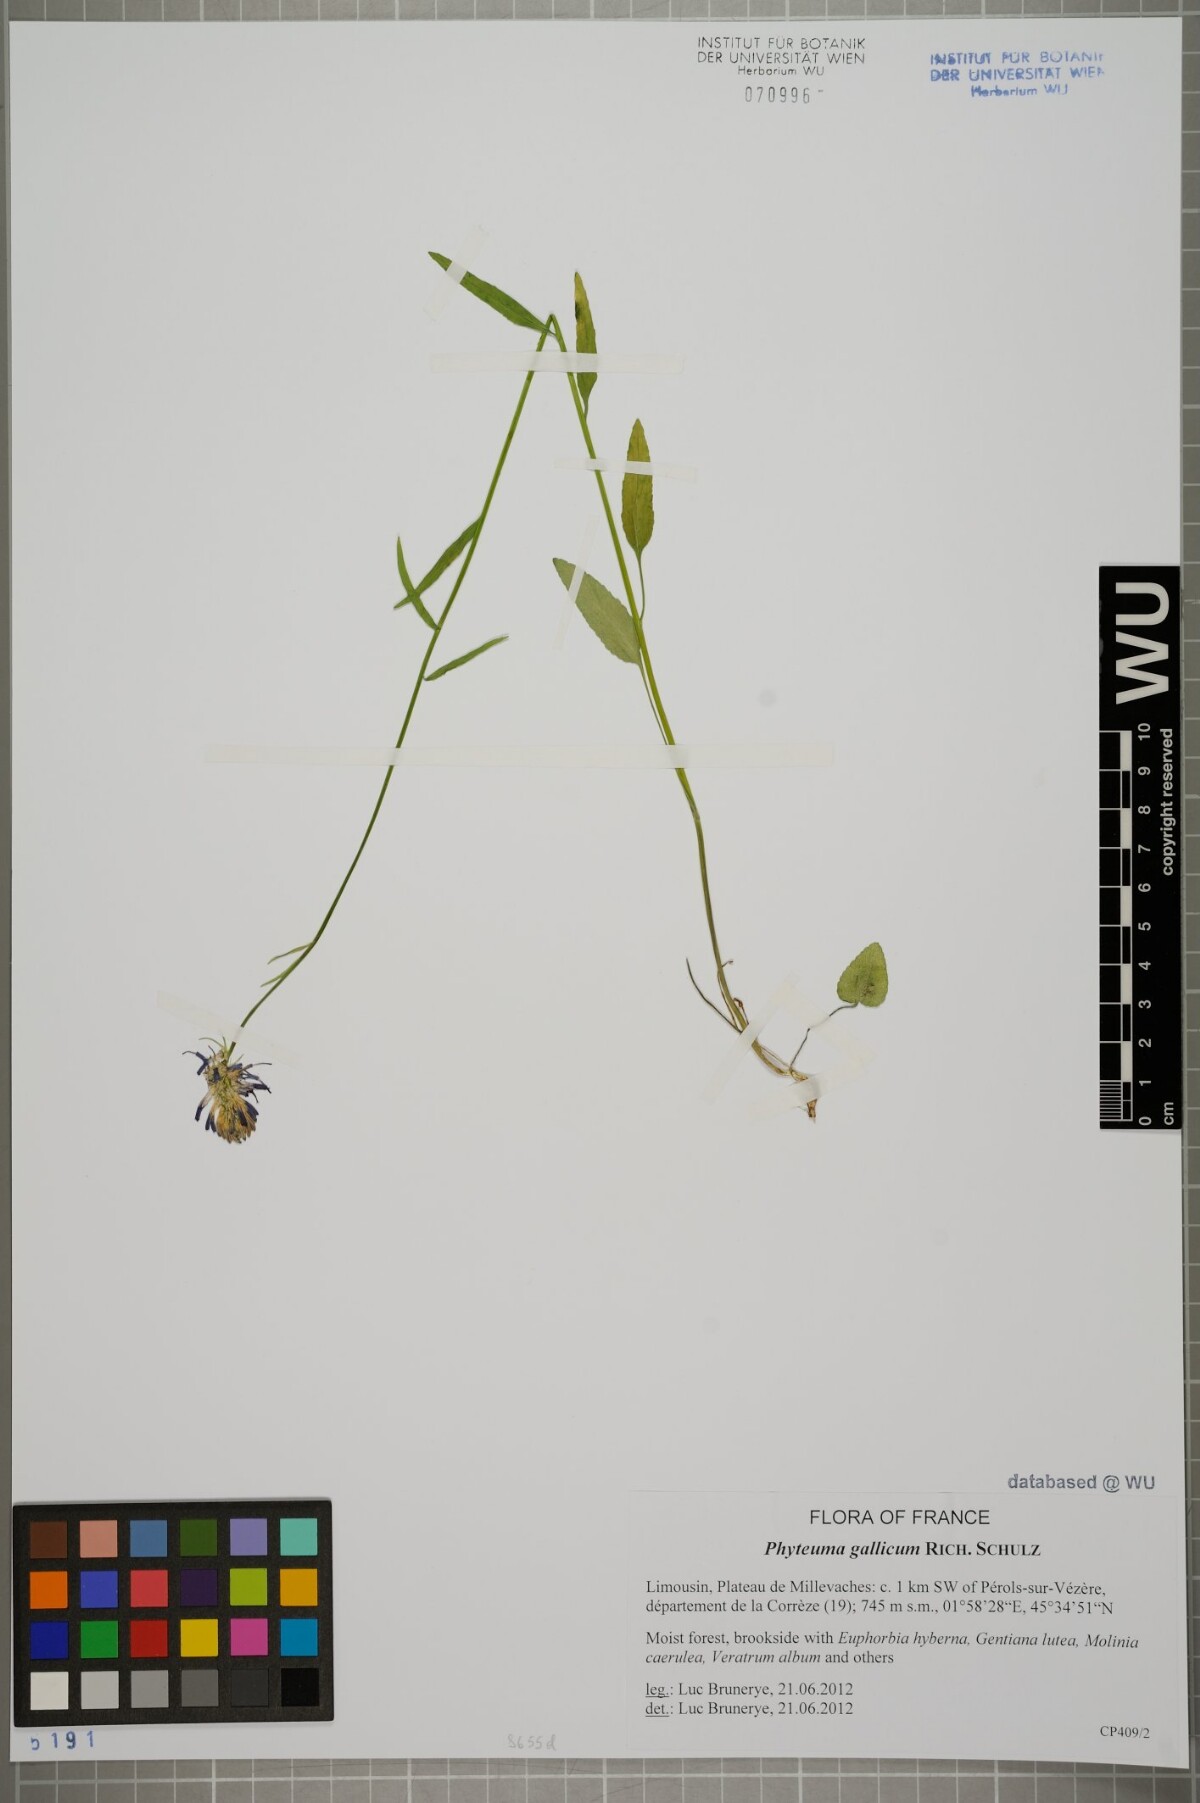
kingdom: Plantae
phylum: Tracheophyta
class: Magnoliopsida
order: Asterales
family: Campanulaceae
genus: Phyteuma
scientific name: Phyteuma gallicum
